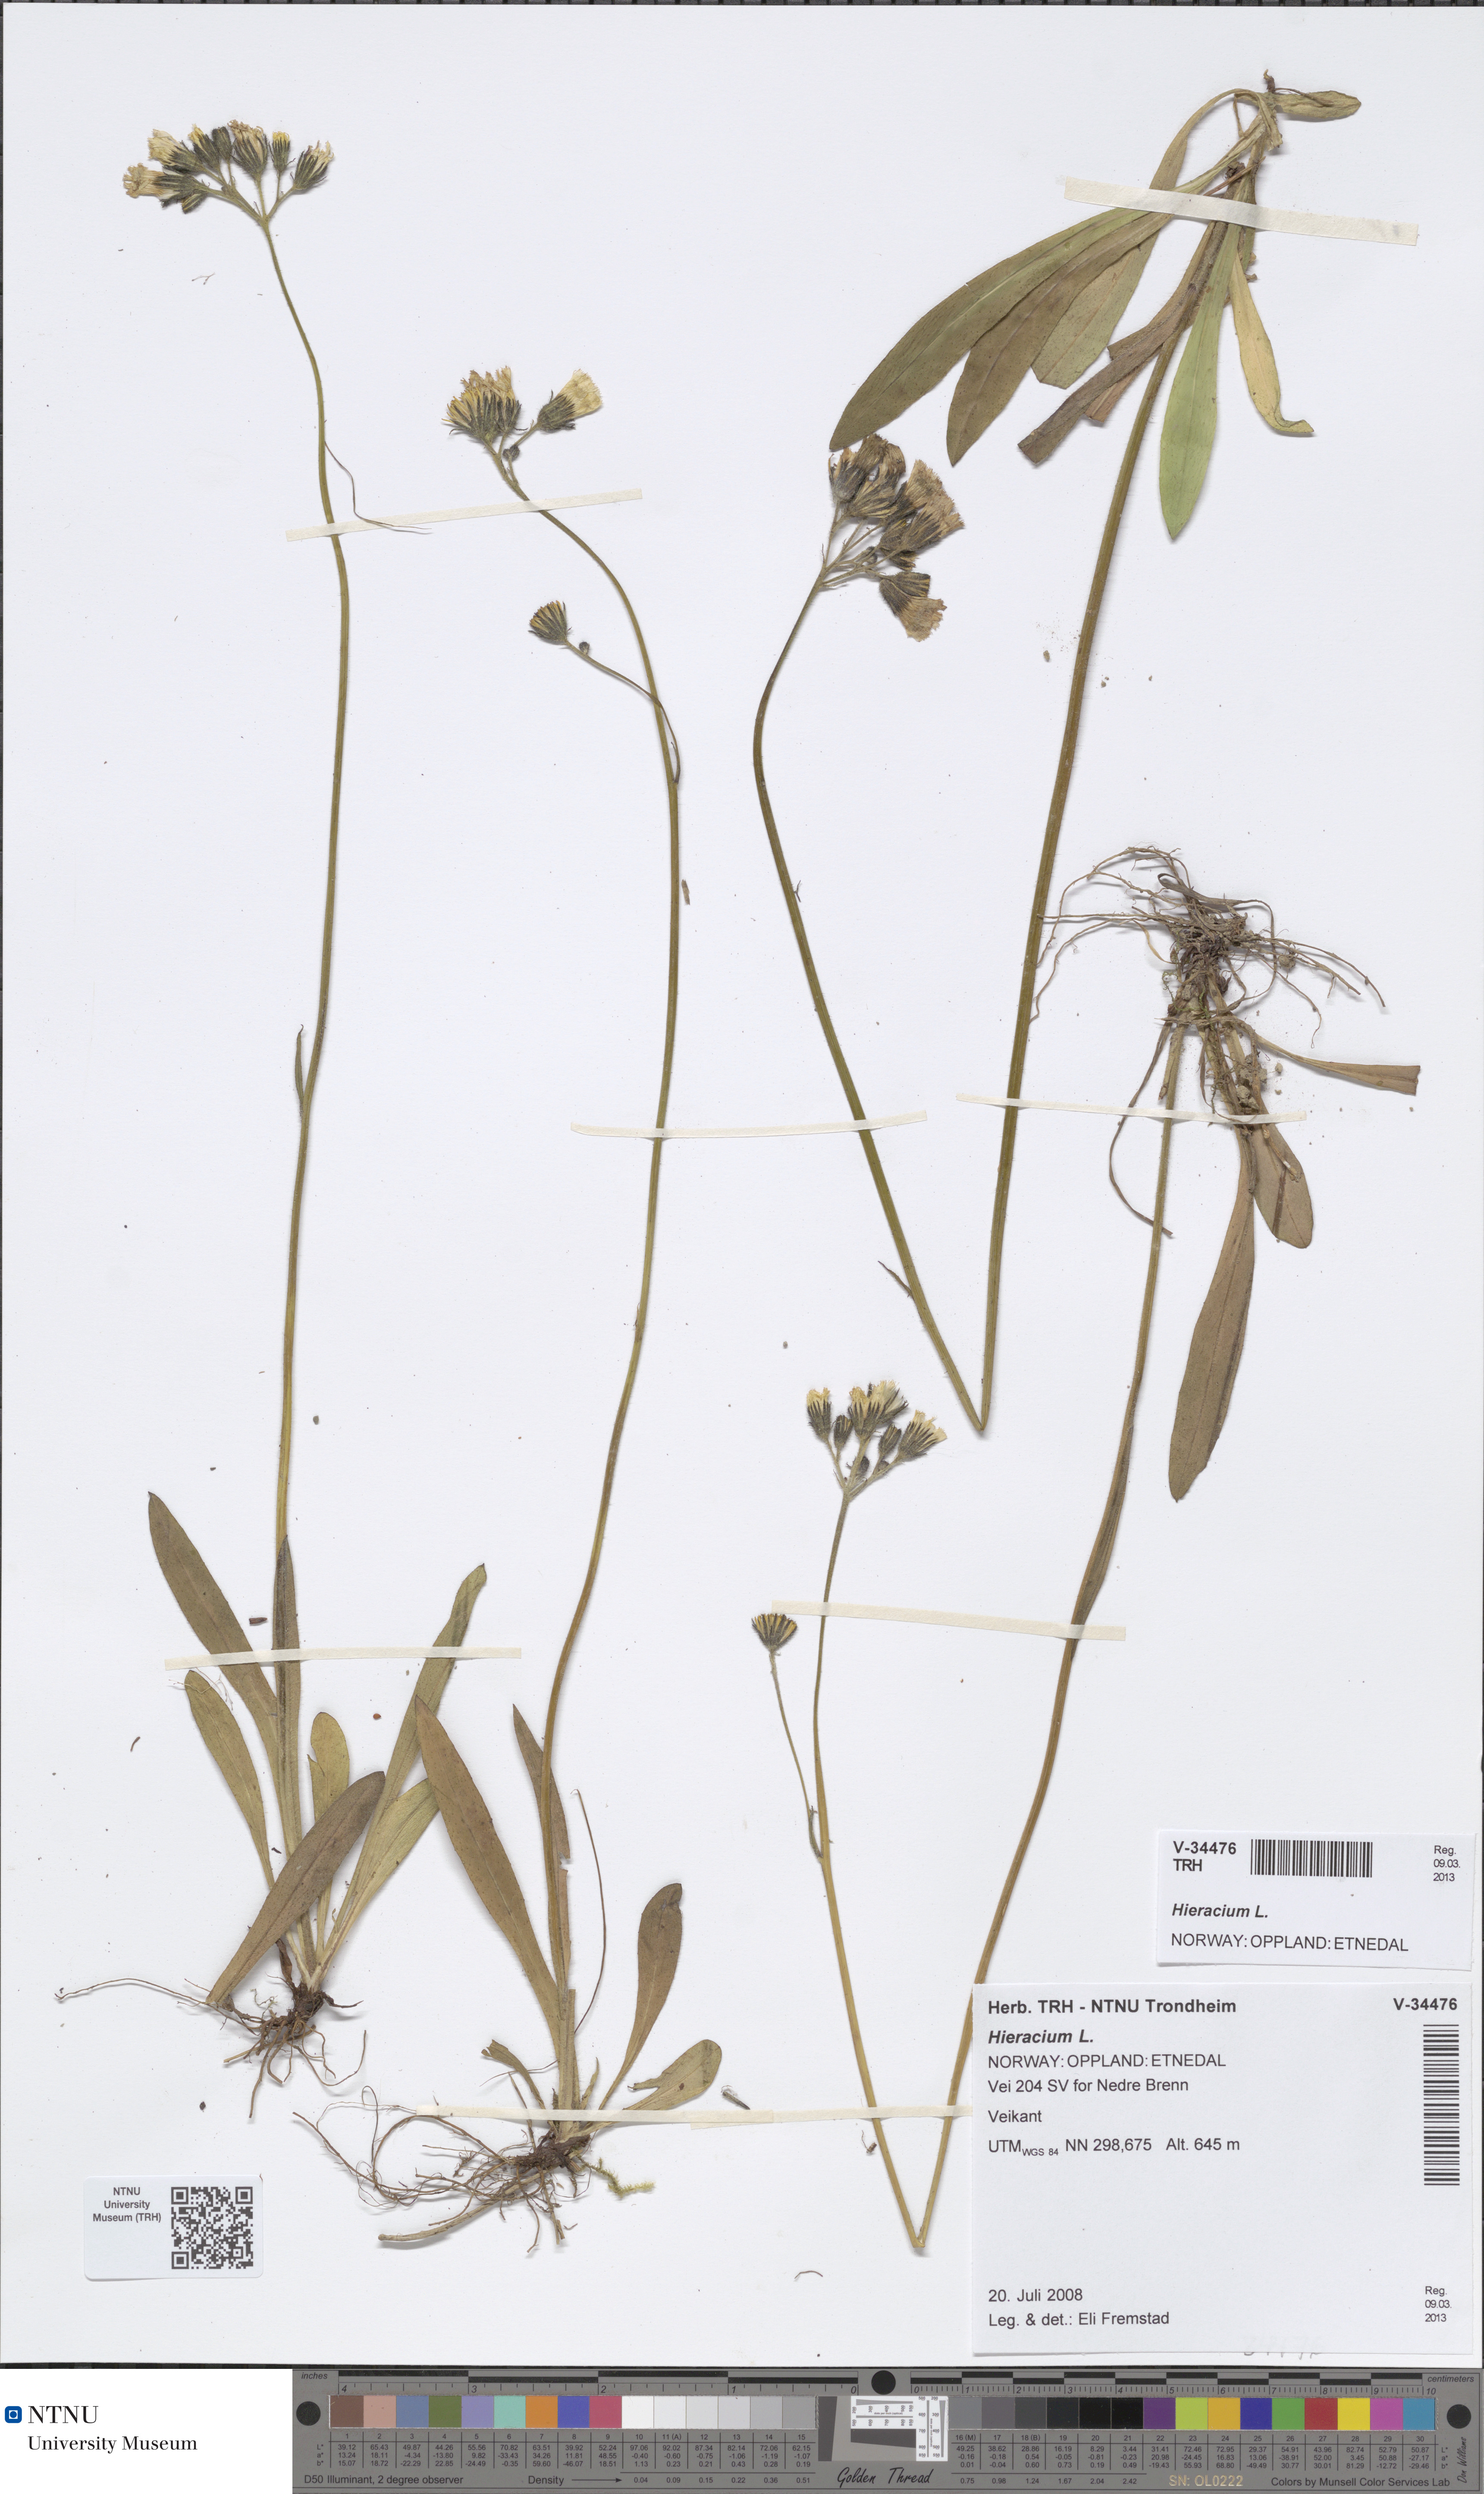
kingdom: Plantae
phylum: Tracheophyta
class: Magnoliopsida
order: Asterales
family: Asteraceae
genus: Hieracium
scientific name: Hieracium
